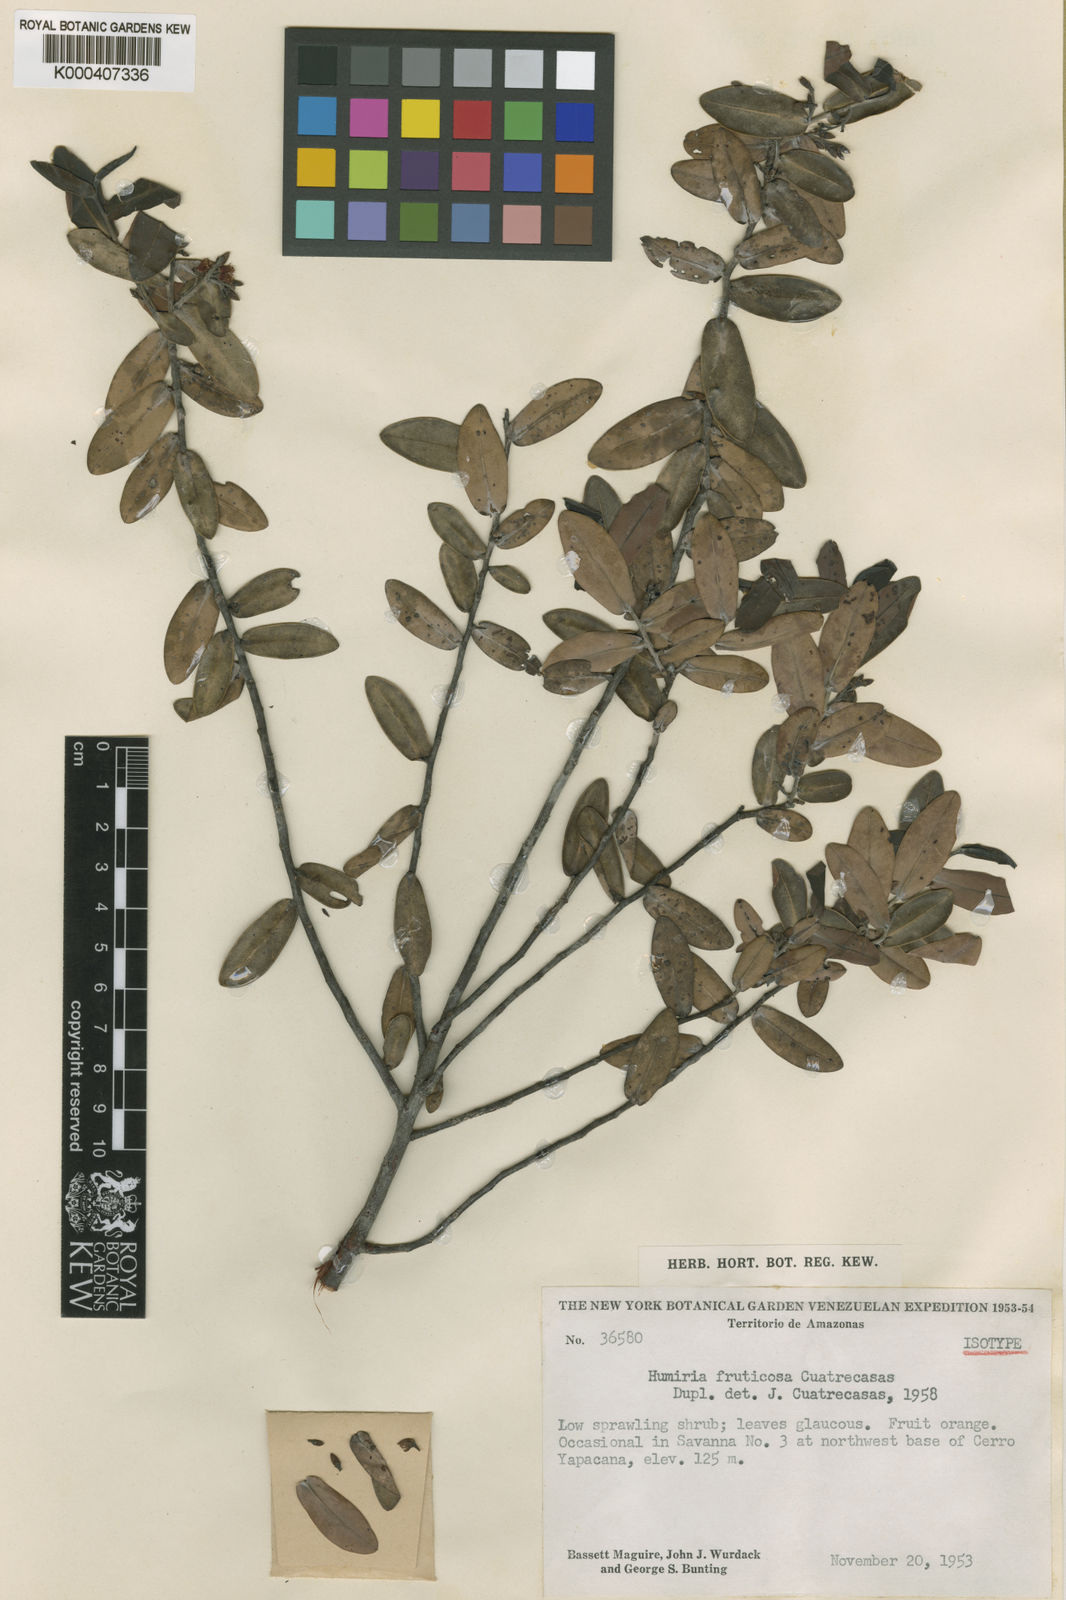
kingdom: Plantae
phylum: Tracheophyta
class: Magnoliopsida
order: Malpighiales
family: Humiriaceae
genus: Humiria
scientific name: Humiria fruticosa
